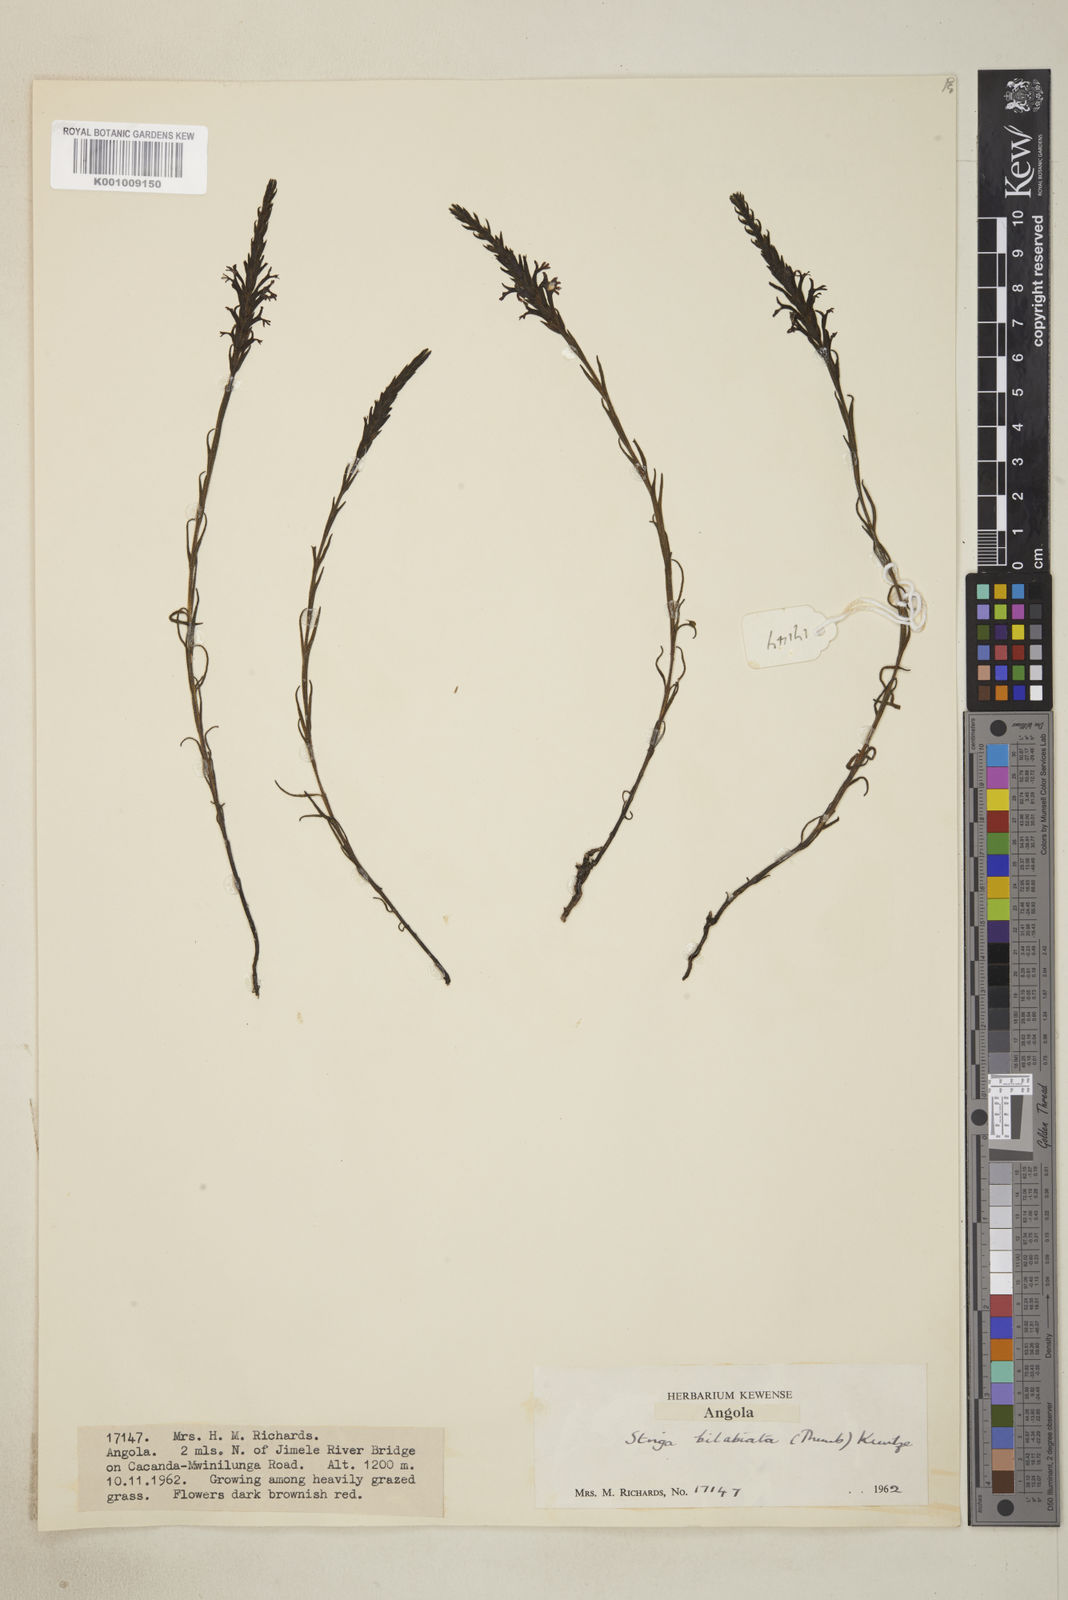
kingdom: Plantae
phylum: Tracheophyta
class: Magnoliopsida
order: Lamiales
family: Orobanchaceae
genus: Striga
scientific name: Striga bilabiata
